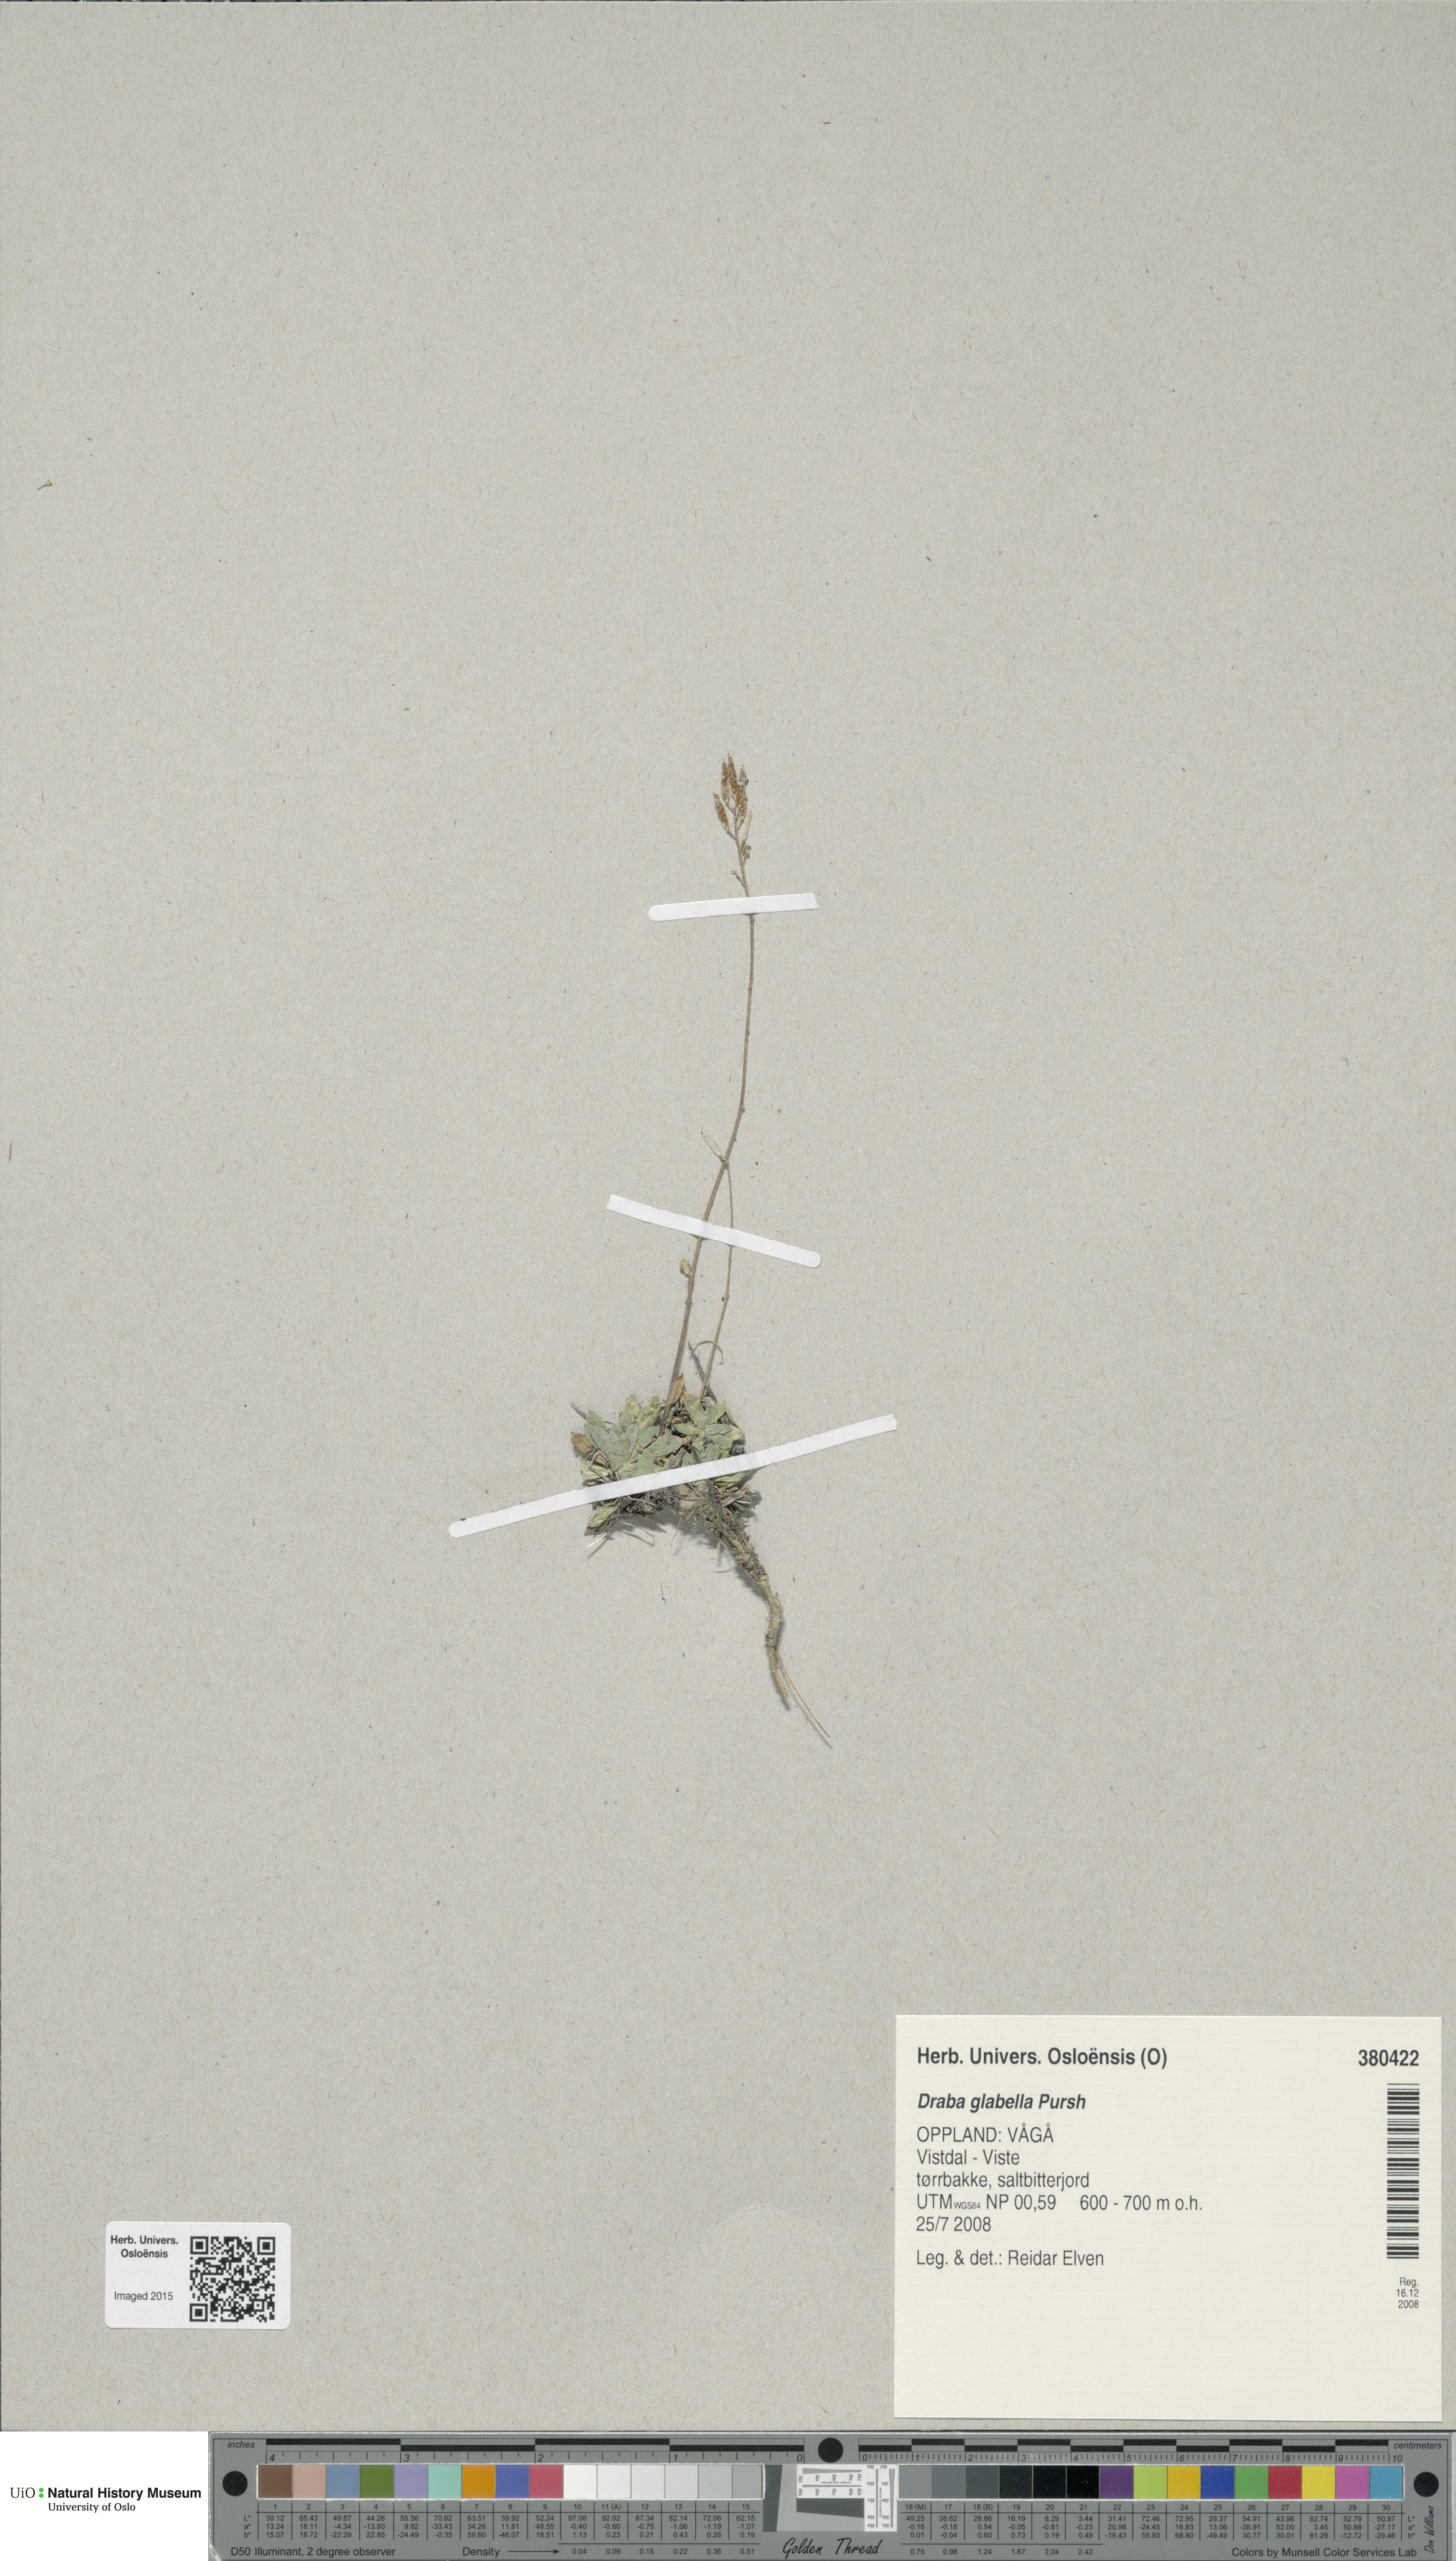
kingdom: Plantae
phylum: Tracheophyta
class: Magnoliopsida
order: Brassicales
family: Brassicaceae
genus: Draba
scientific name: Draba glabella
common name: Glaucous draba
